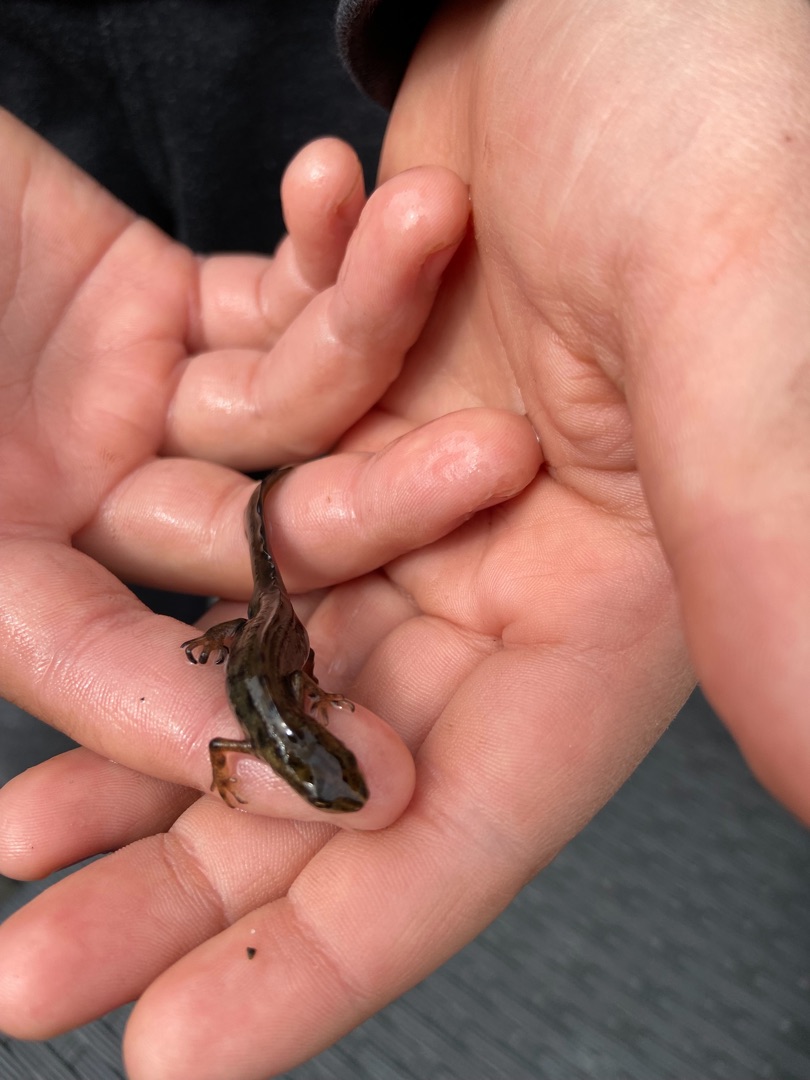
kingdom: Animalia
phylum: Chordata
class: Amphibia
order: Caudata
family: Salamandridae
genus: Lissotriton
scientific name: Lissotriton vulgaris
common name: Lille vandsalamander
